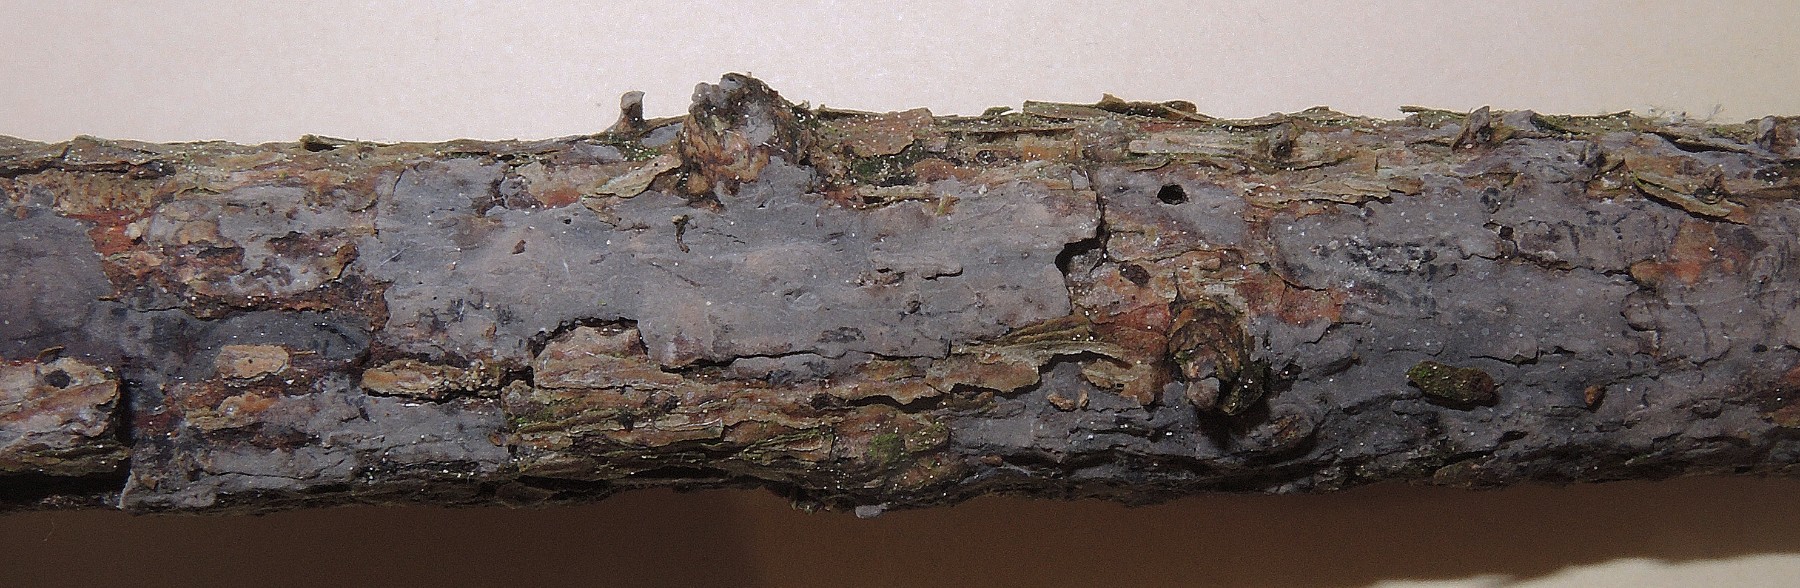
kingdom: Fungi
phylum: Basidiomycota
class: Agaricomycetes
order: Russulales
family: Peniophoraceae
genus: Peniophora
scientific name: Peniophora lycii
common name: grynet voksskind
